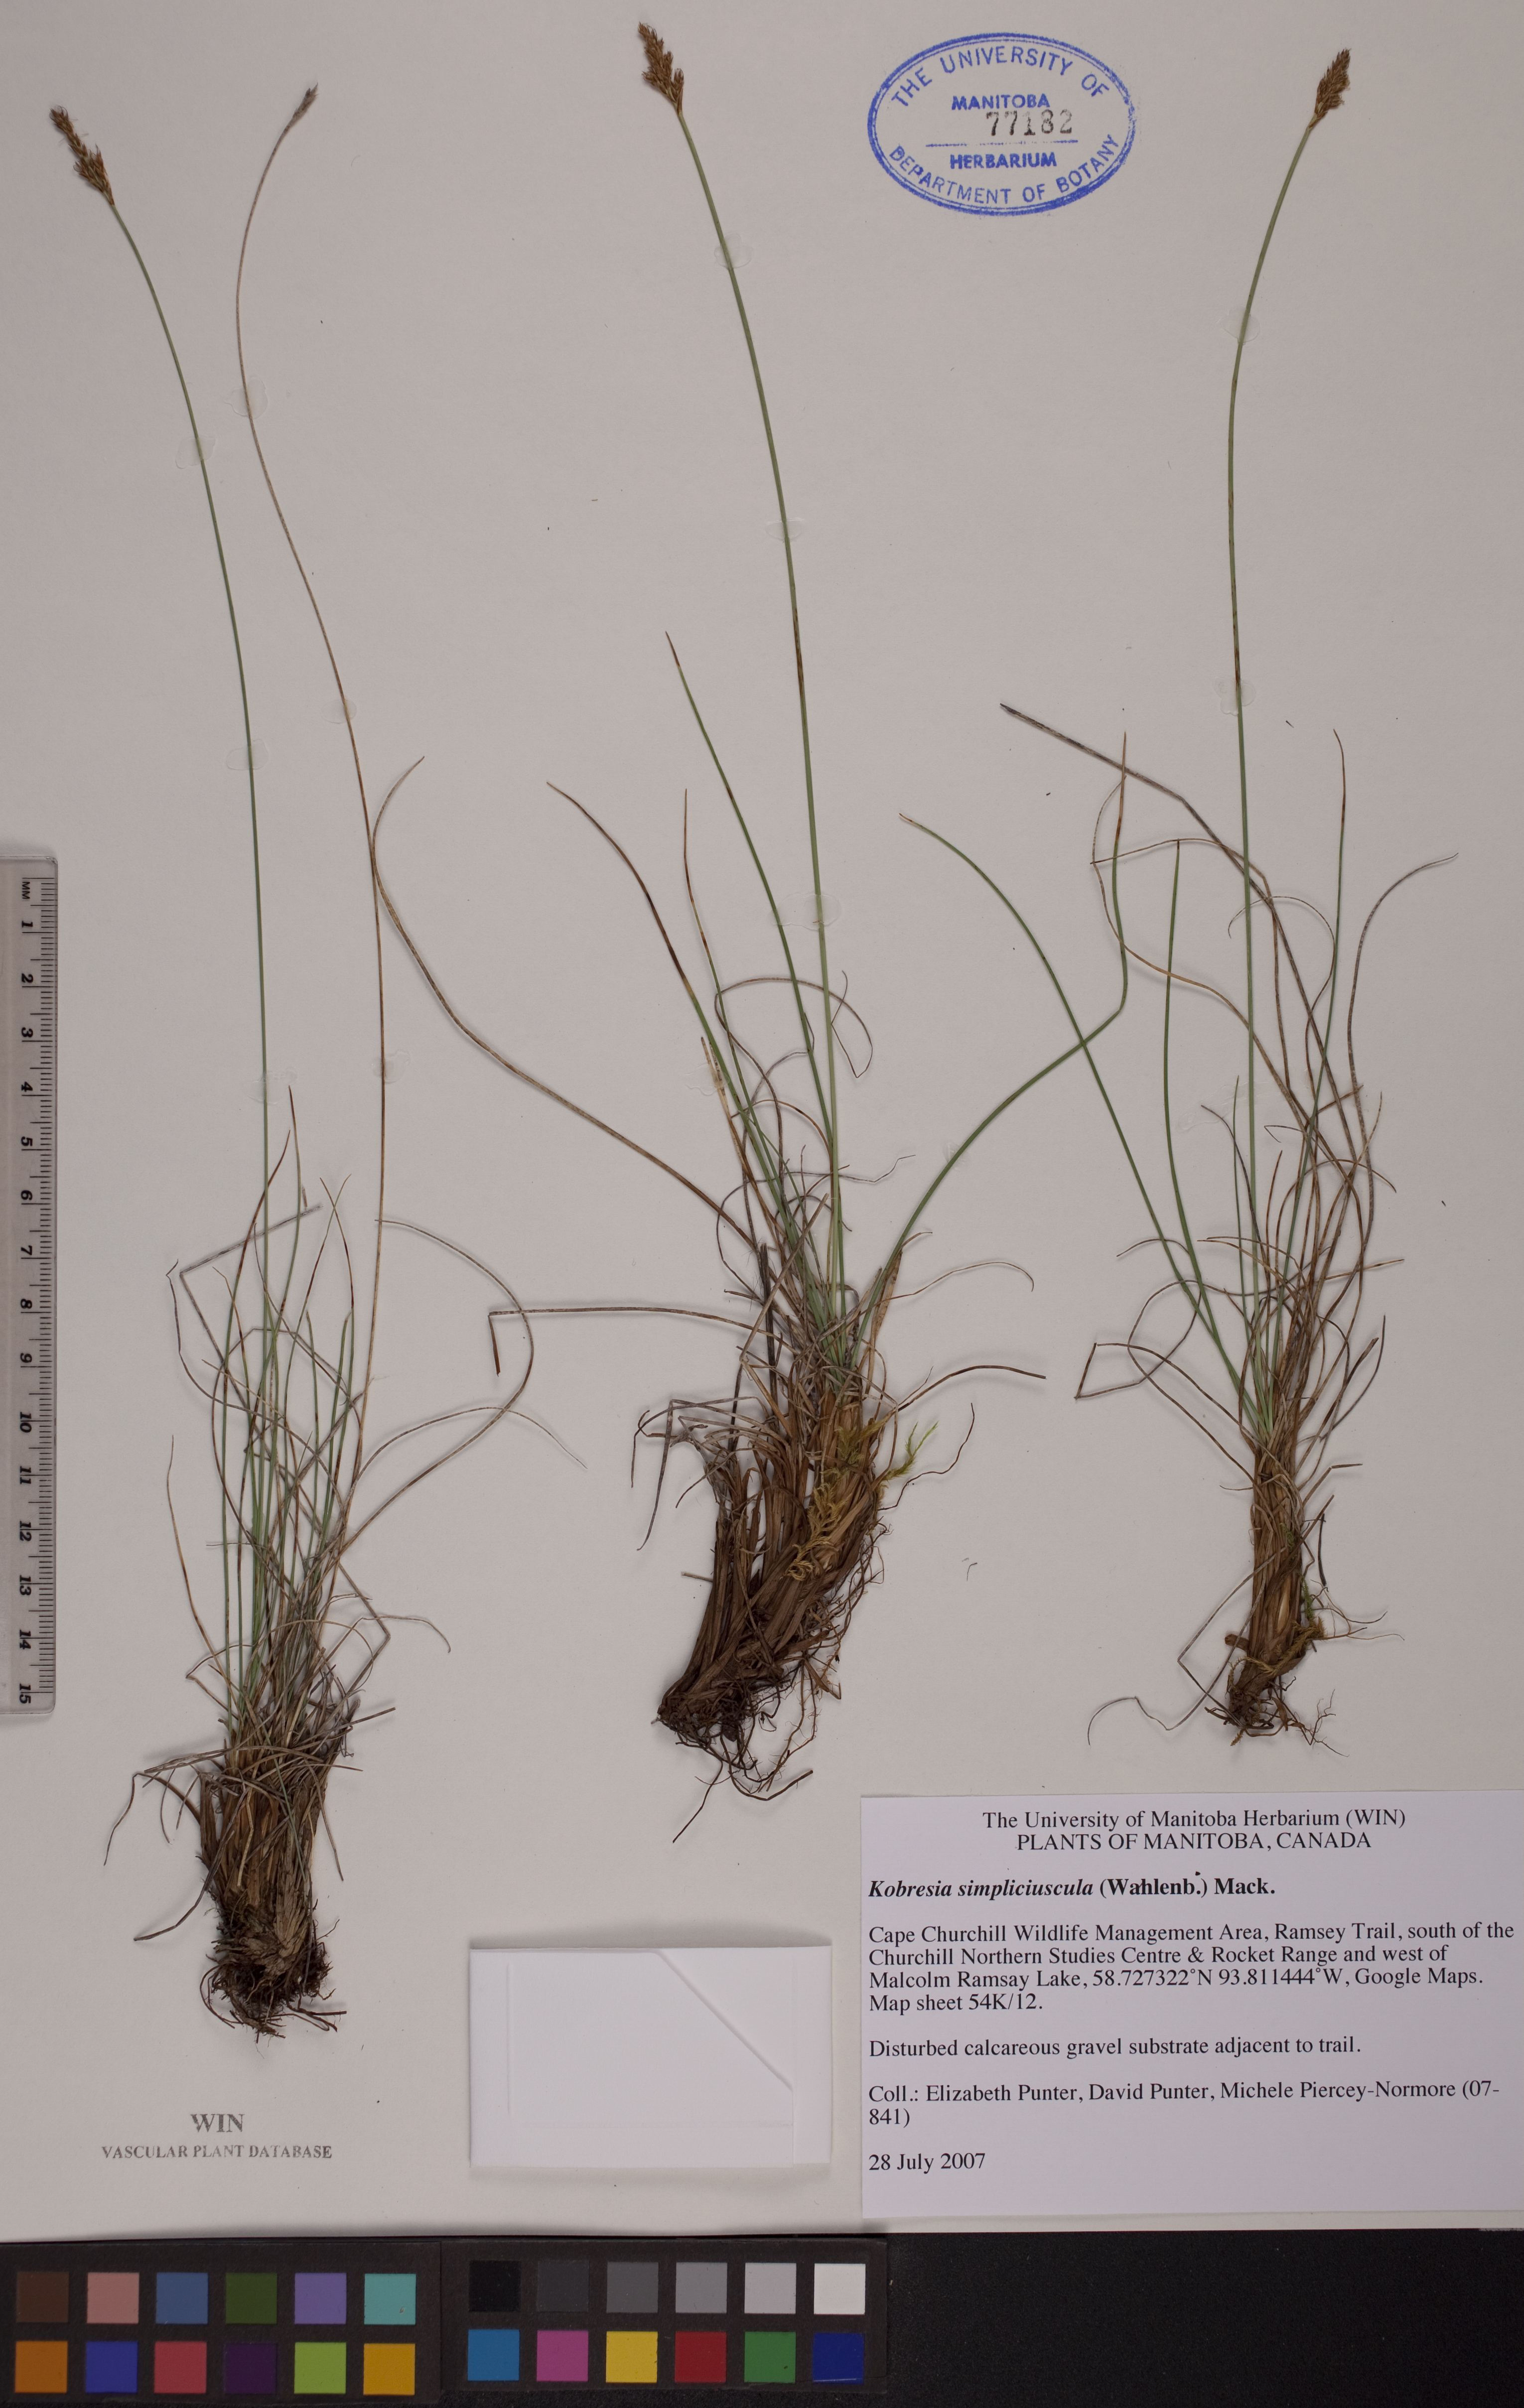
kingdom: Plantae
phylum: Tracheophyta
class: Liliopsida
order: Poales
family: Cyperaceae
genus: Carex
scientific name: Carex simpliciuscula
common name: Simple bog sedge
